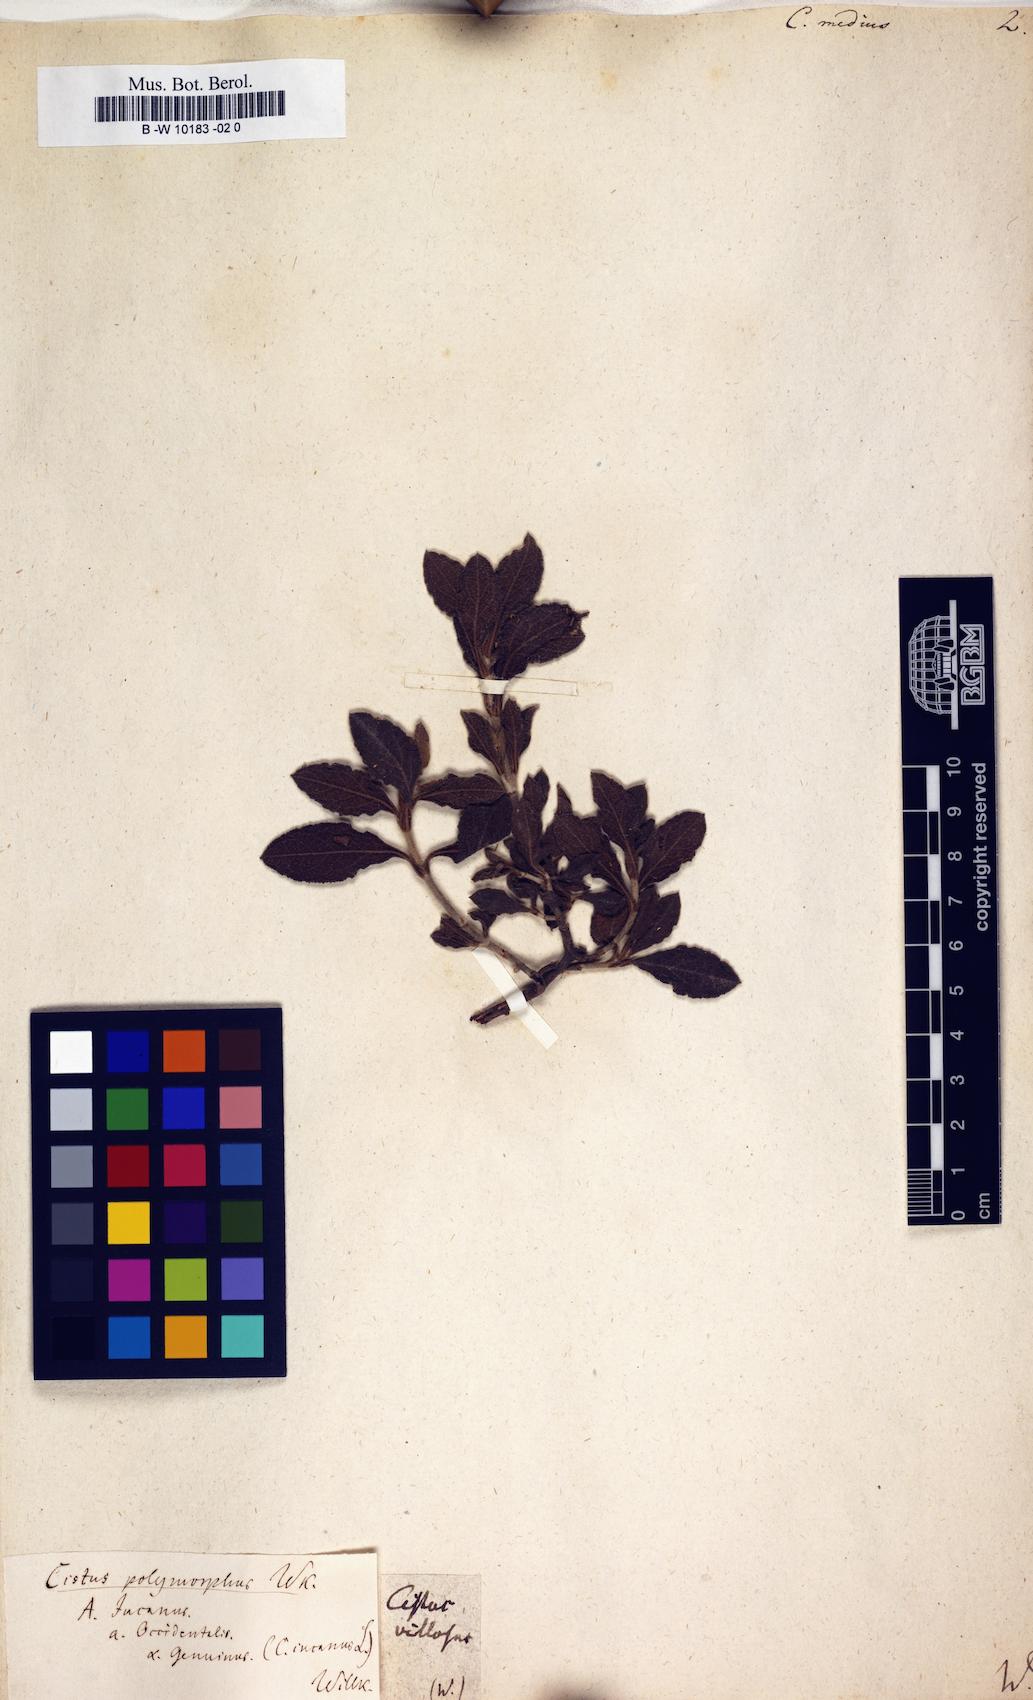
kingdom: Plantae
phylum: Tracheophyta
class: Magnoliopsida
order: Malvales
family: Cistaceae
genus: Cistus
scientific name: Cistus medius
